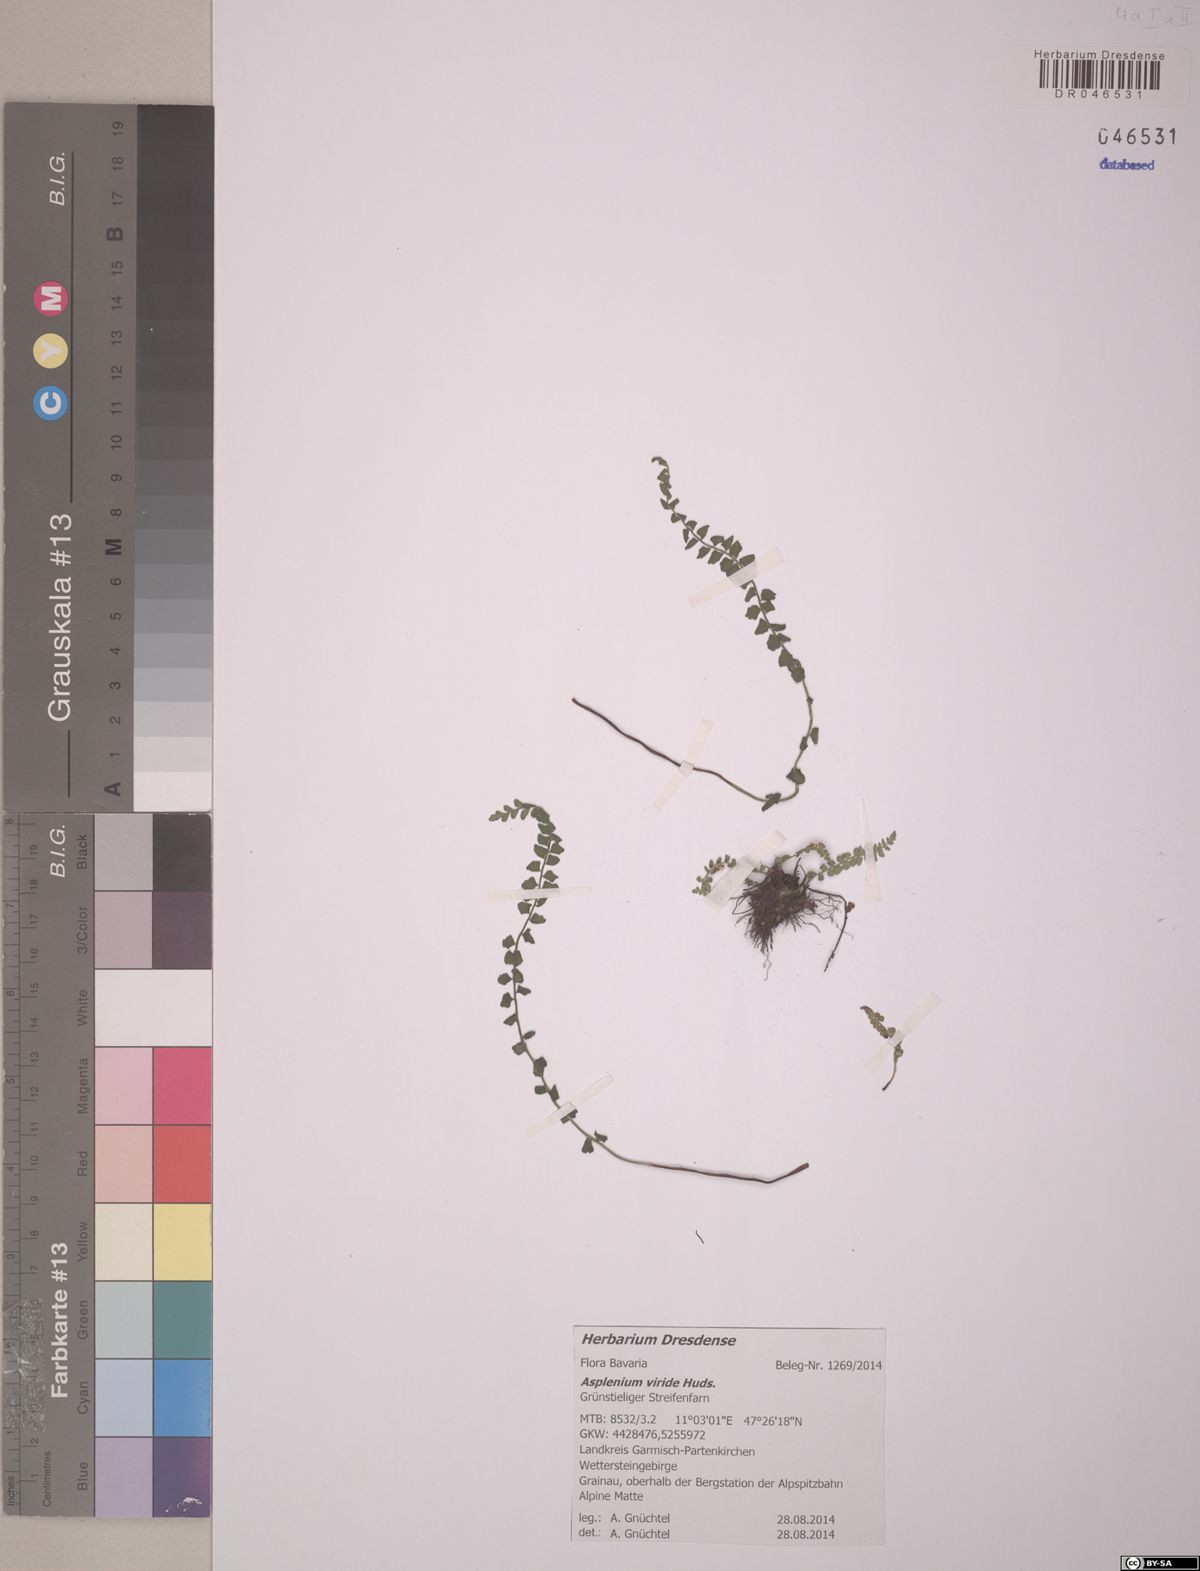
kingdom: Plantae
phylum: Tracheophyta
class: Polypodiopsida
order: Polypodiales
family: Aspleniaceae
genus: Asplenium
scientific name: Asplenium viride
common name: Green spleenwort
